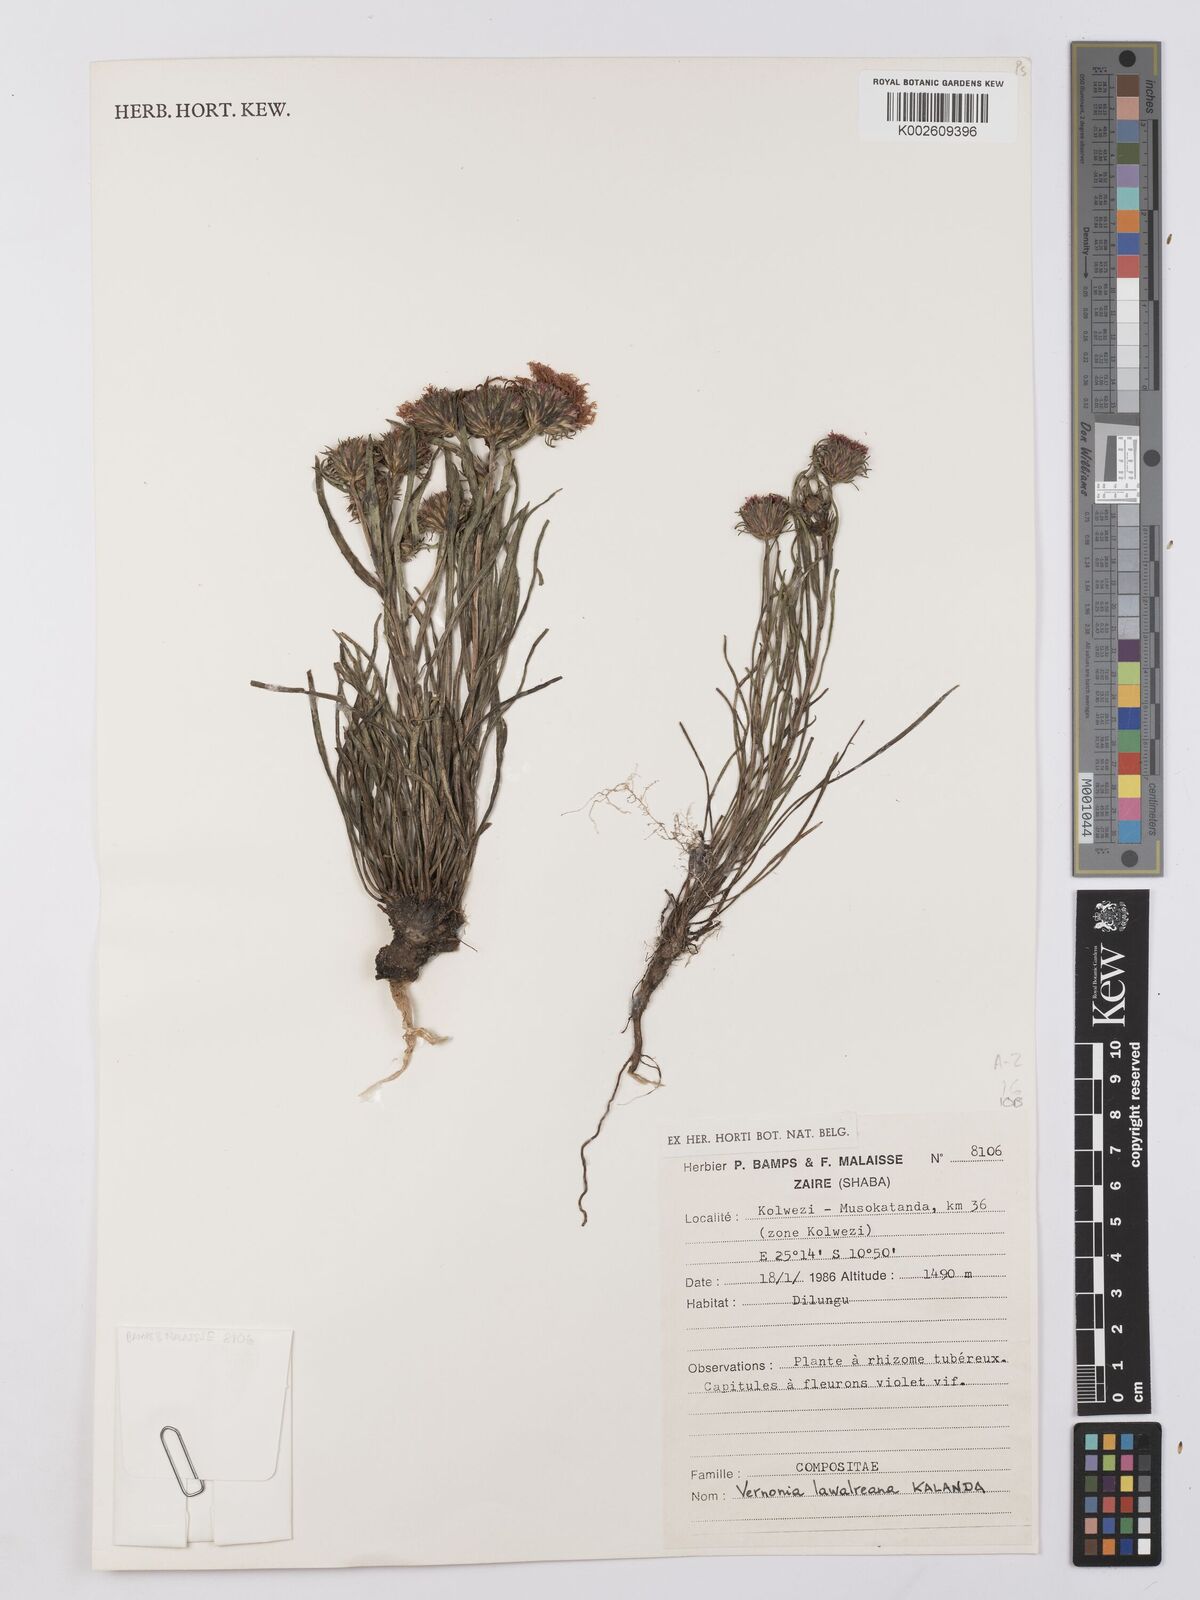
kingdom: Plantae
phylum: Tracheophyta
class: Magnoliopsida
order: Asterales
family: Asteraceae
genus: Vernonia
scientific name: Vernonia robinsonii
